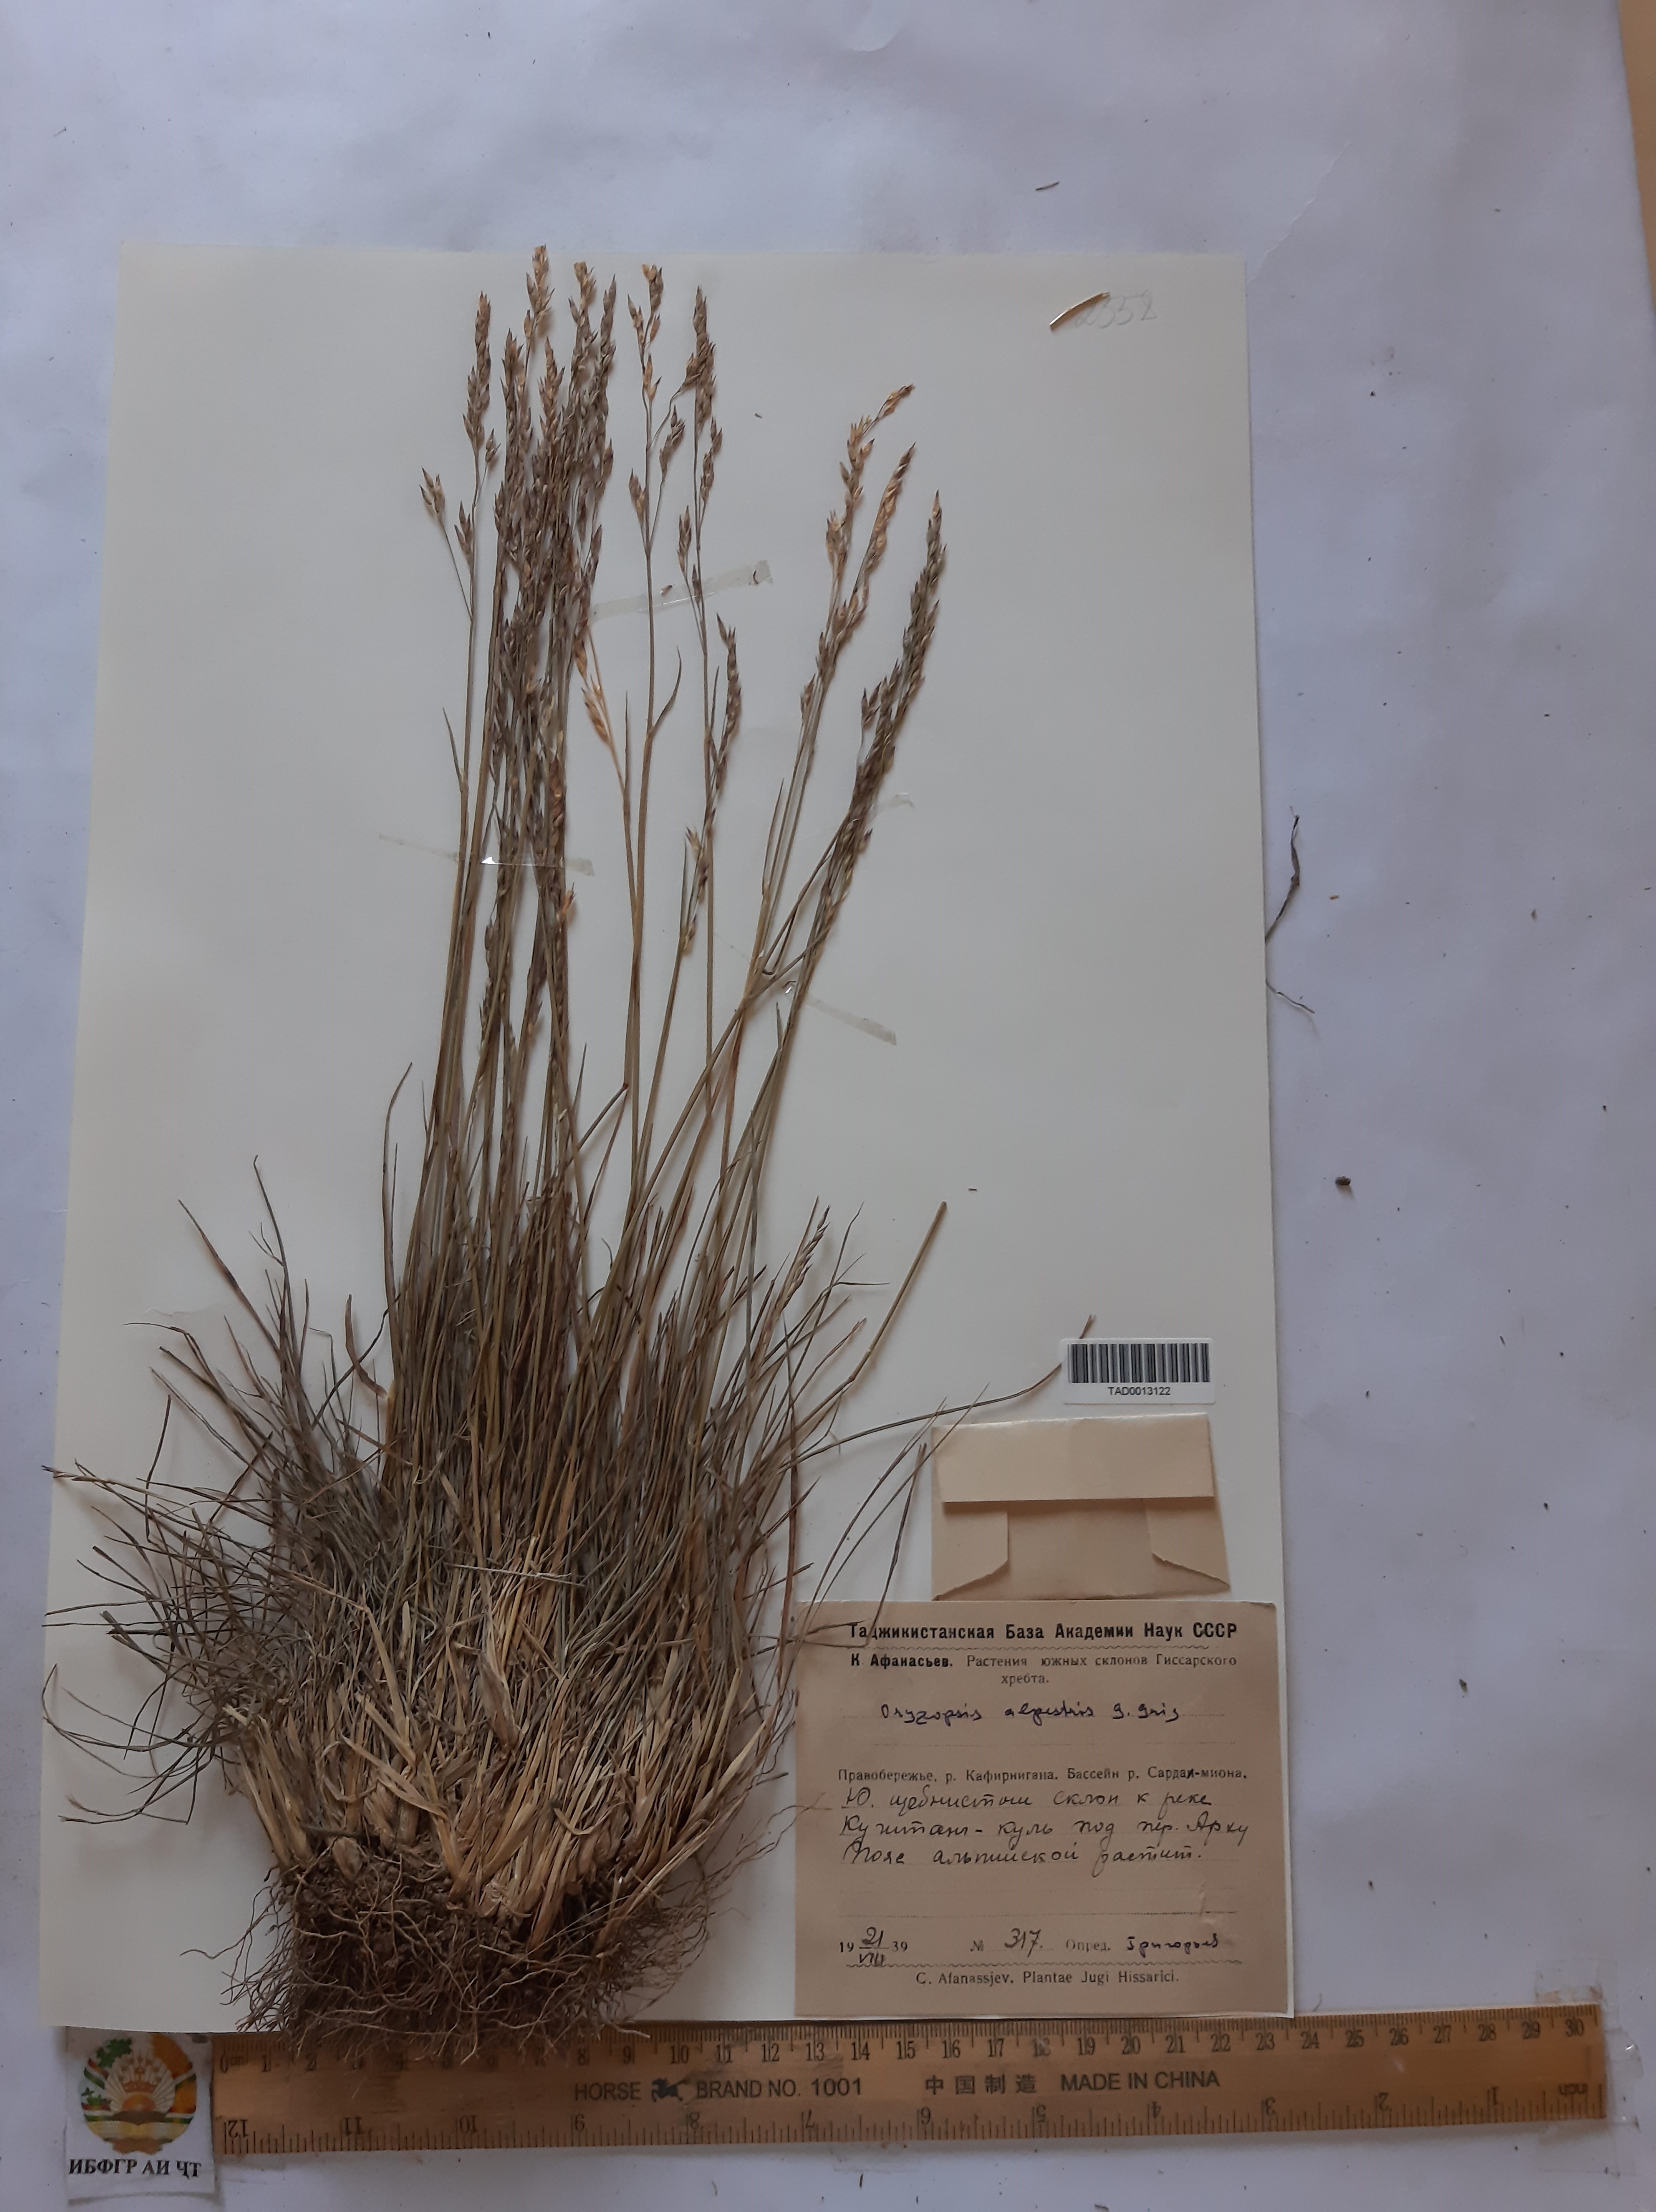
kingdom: Plantae
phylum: Tracheophyta
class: Liliopsida
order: Poales
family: Poaceae
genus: Piptatherum
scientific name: Piptatherum alpestre
